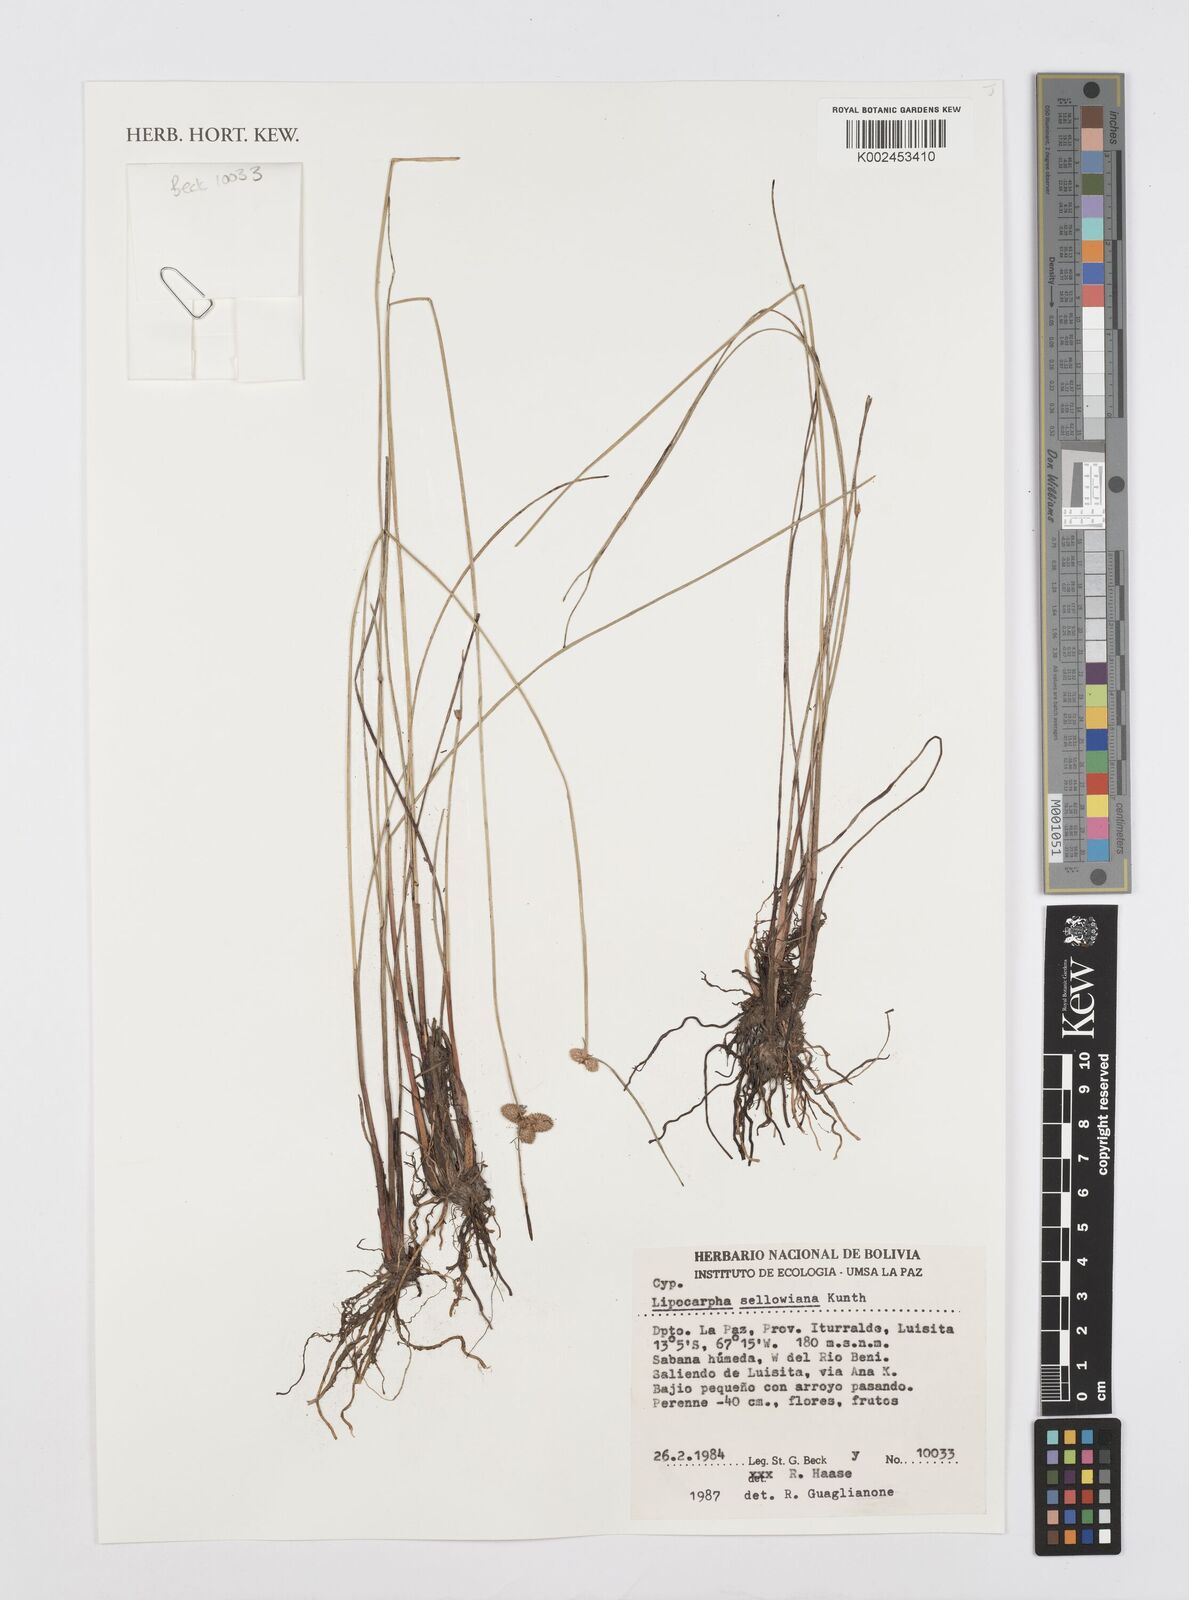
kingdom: Plantae
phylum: Tracheophyta
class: Liliopsida
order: Poales
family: Cyperaceae
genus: Cyperus
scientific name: Cyperus lanceolatus
